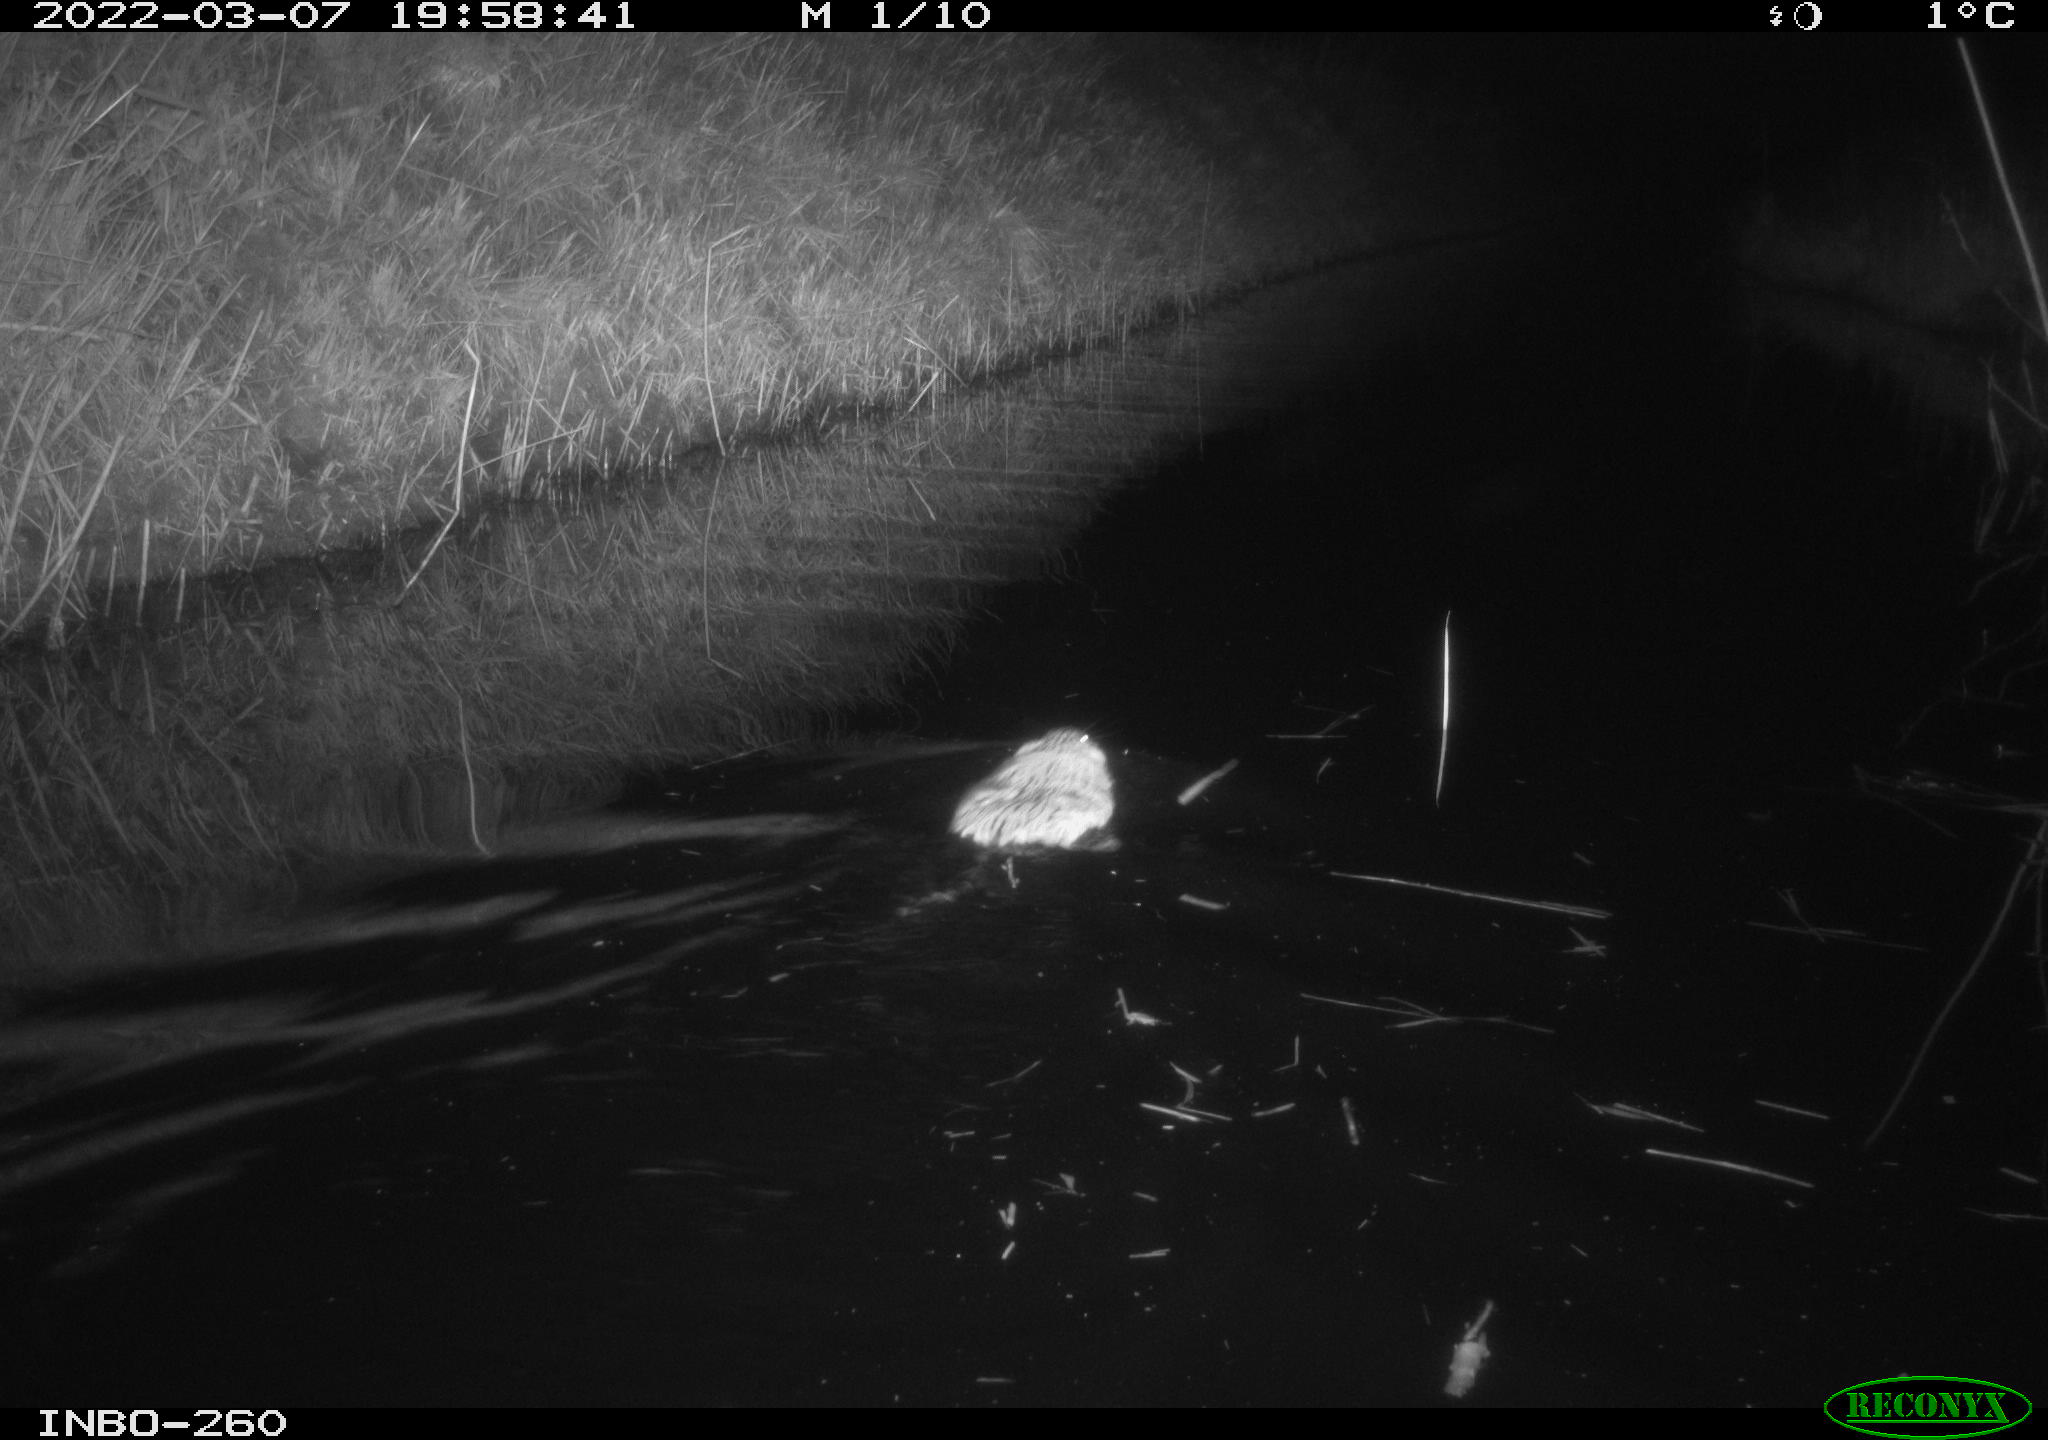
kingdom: Animalia
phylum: Chordata
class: Mammalia
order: Rodentia
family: Cricetidae
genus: Ondatra
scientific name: Ondatra zibethicus
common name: Muskrat
